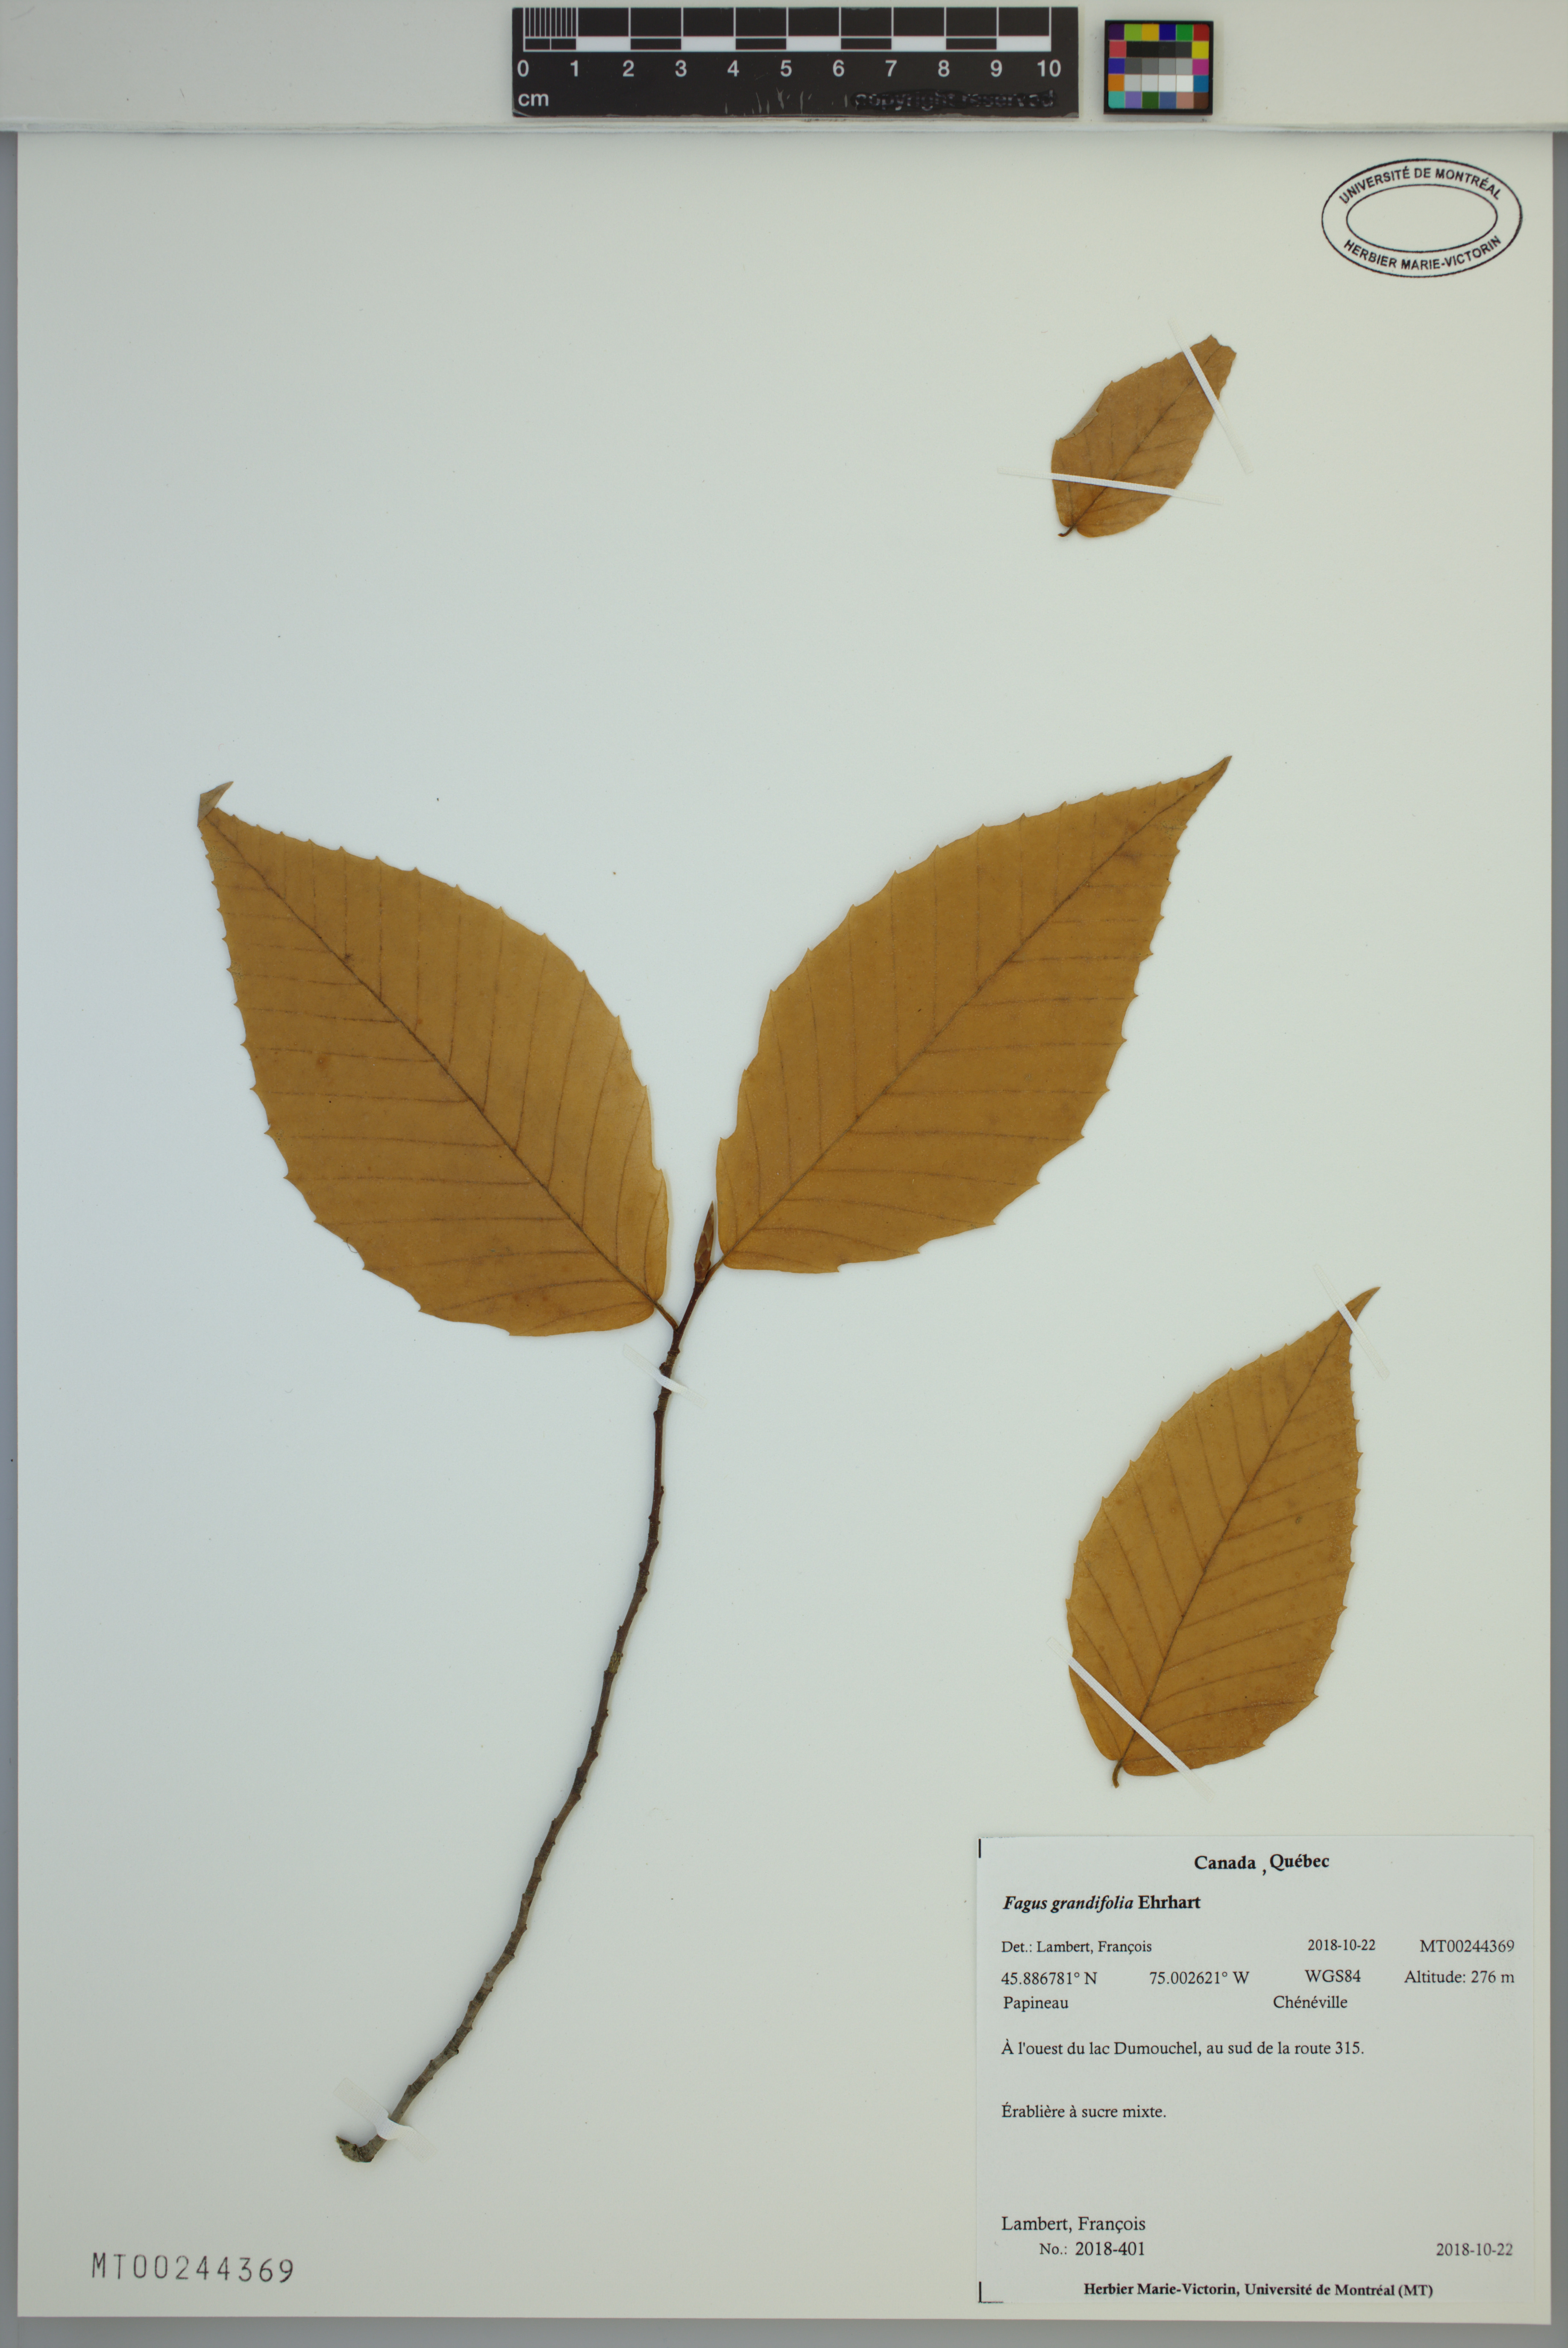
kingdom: Plantae
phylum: Tracheophyta
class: Magnoliopsida
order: Fagales
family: Fagaceae
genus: Fagus
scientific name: Fagus grandifolia
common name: American beech
